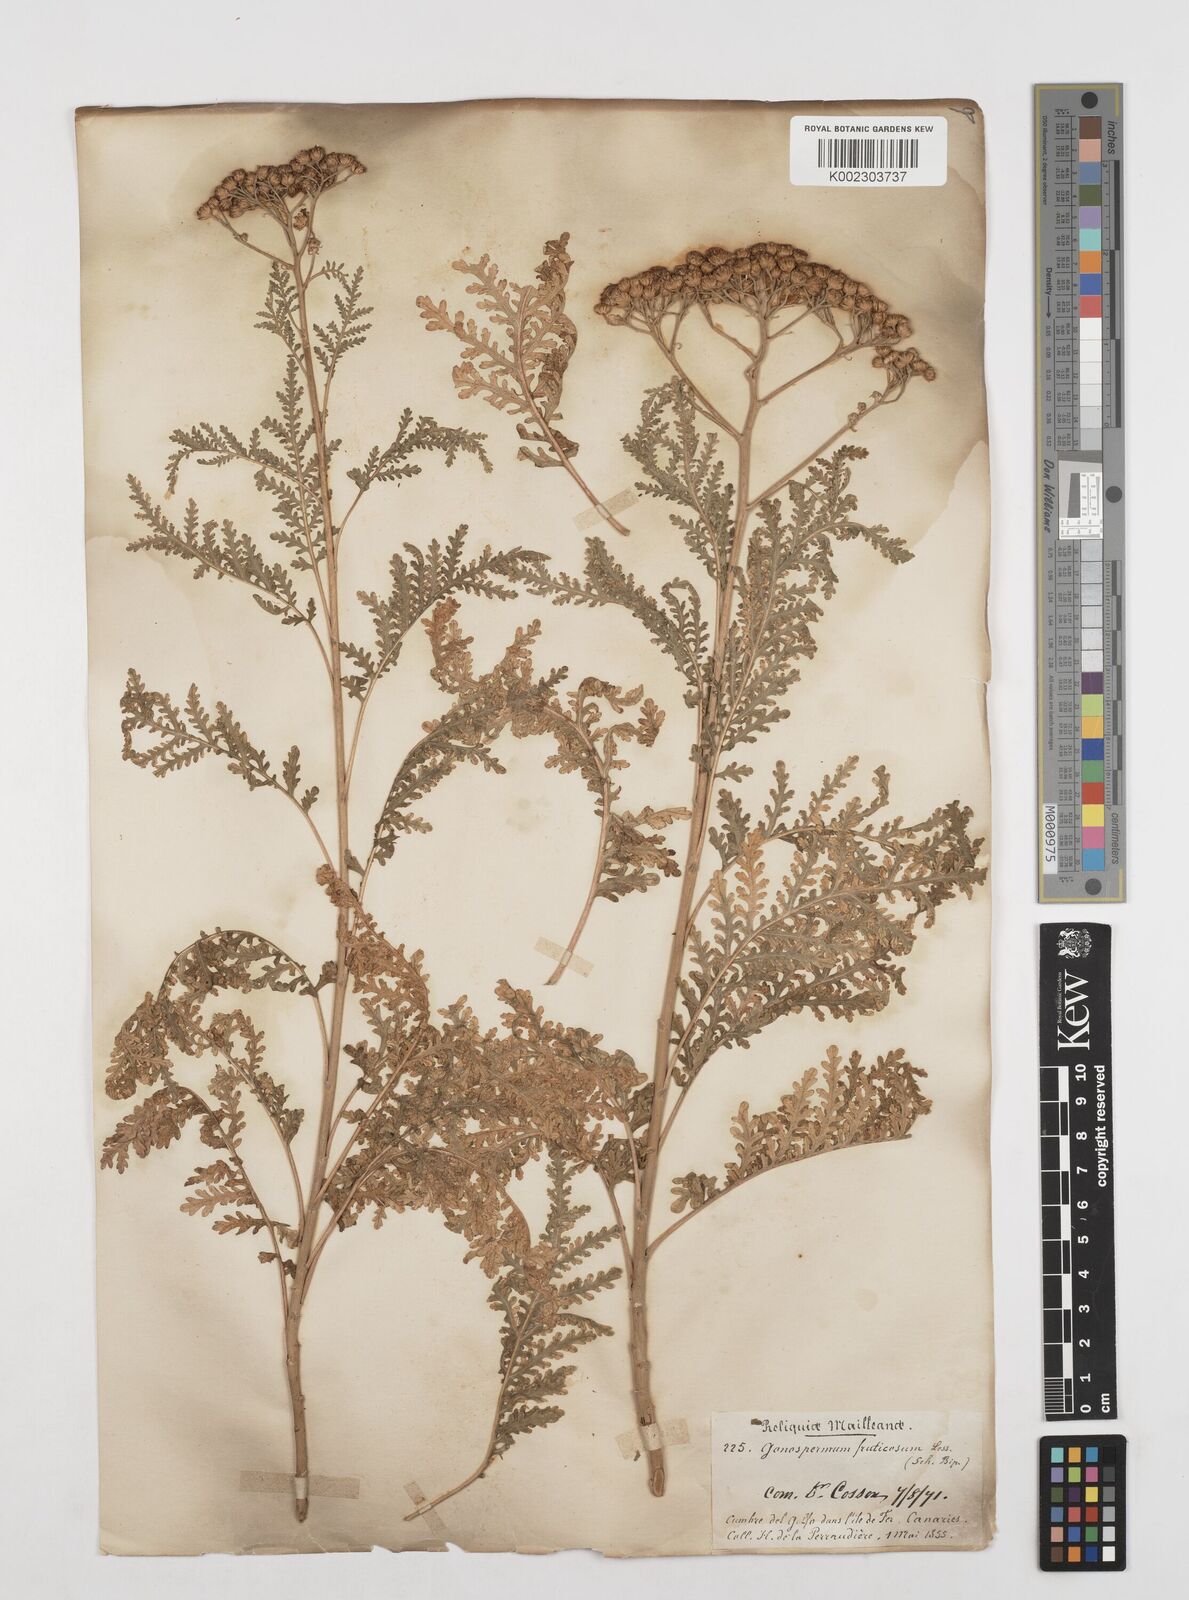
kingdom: Plantae
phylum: Tracheophyta
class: Magnoliopsida
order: Asterales
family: Asteraceae
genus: Gonospermum
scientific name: Gonospermum fruticosum
